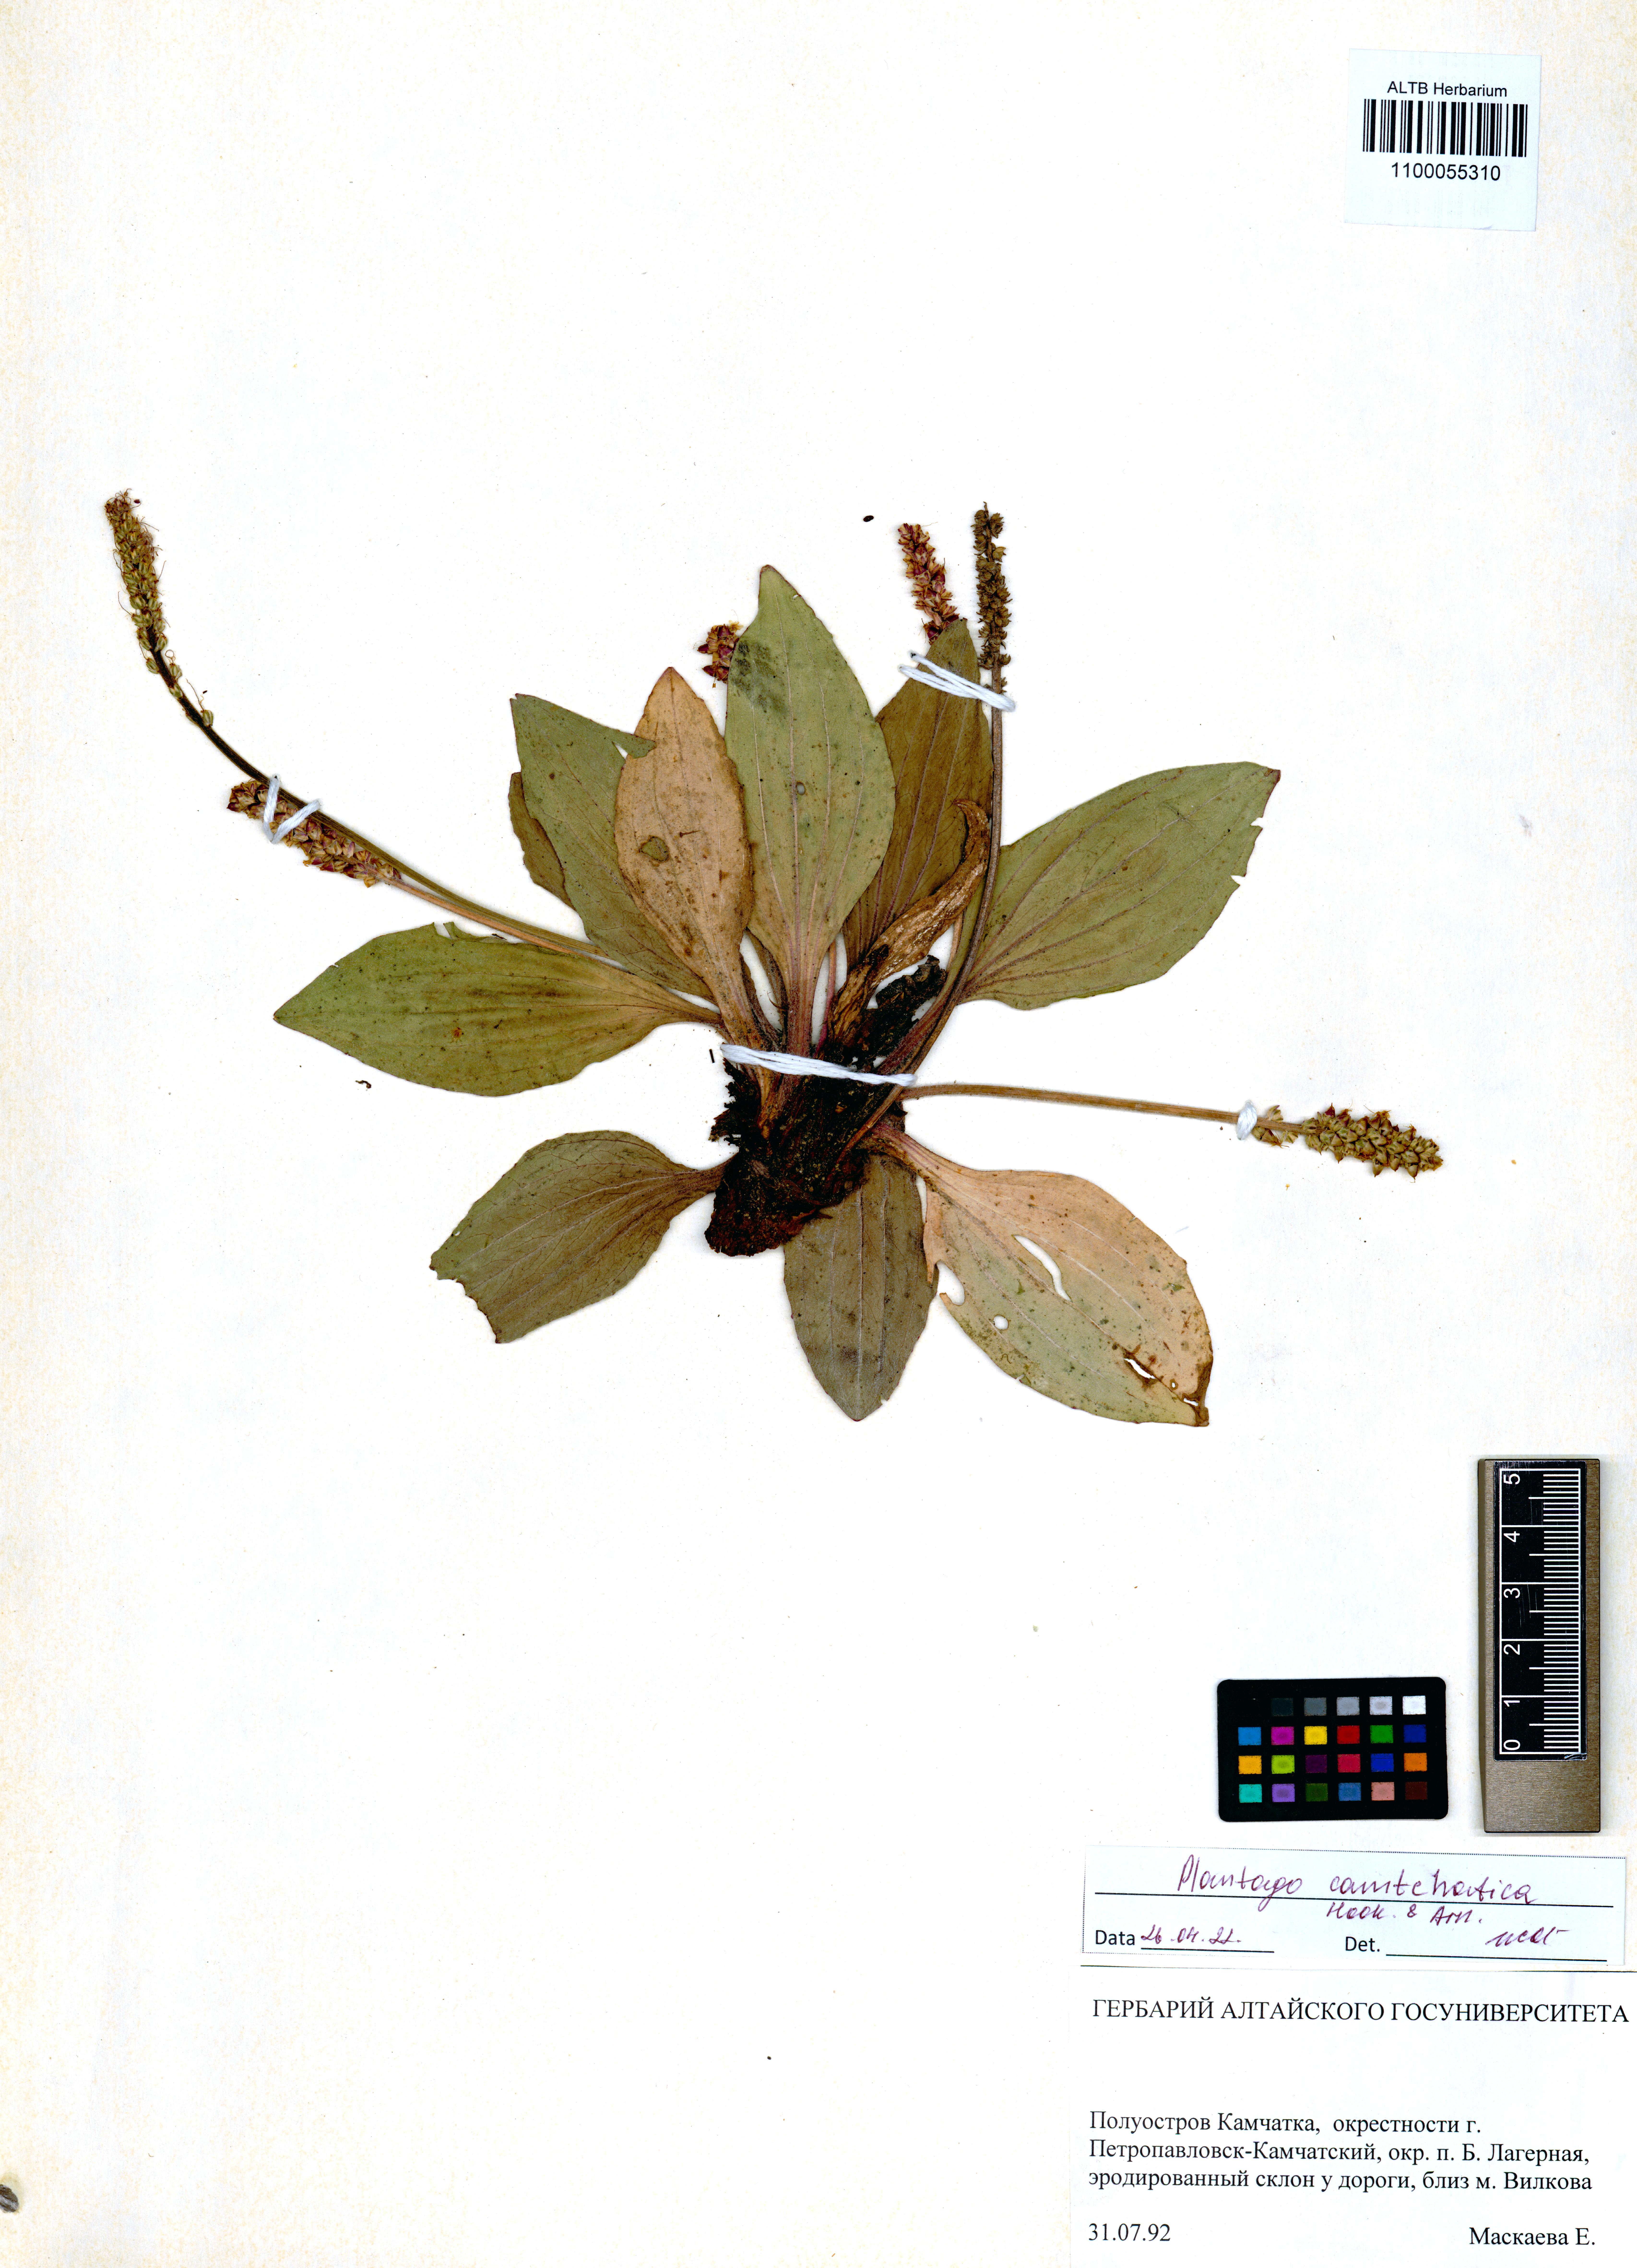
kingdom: Plantae
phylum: Tracheophyta
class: Magnoliopsida
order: Lamiales
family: Plantaginaceae
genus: Plantago
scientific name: Plantago australis
